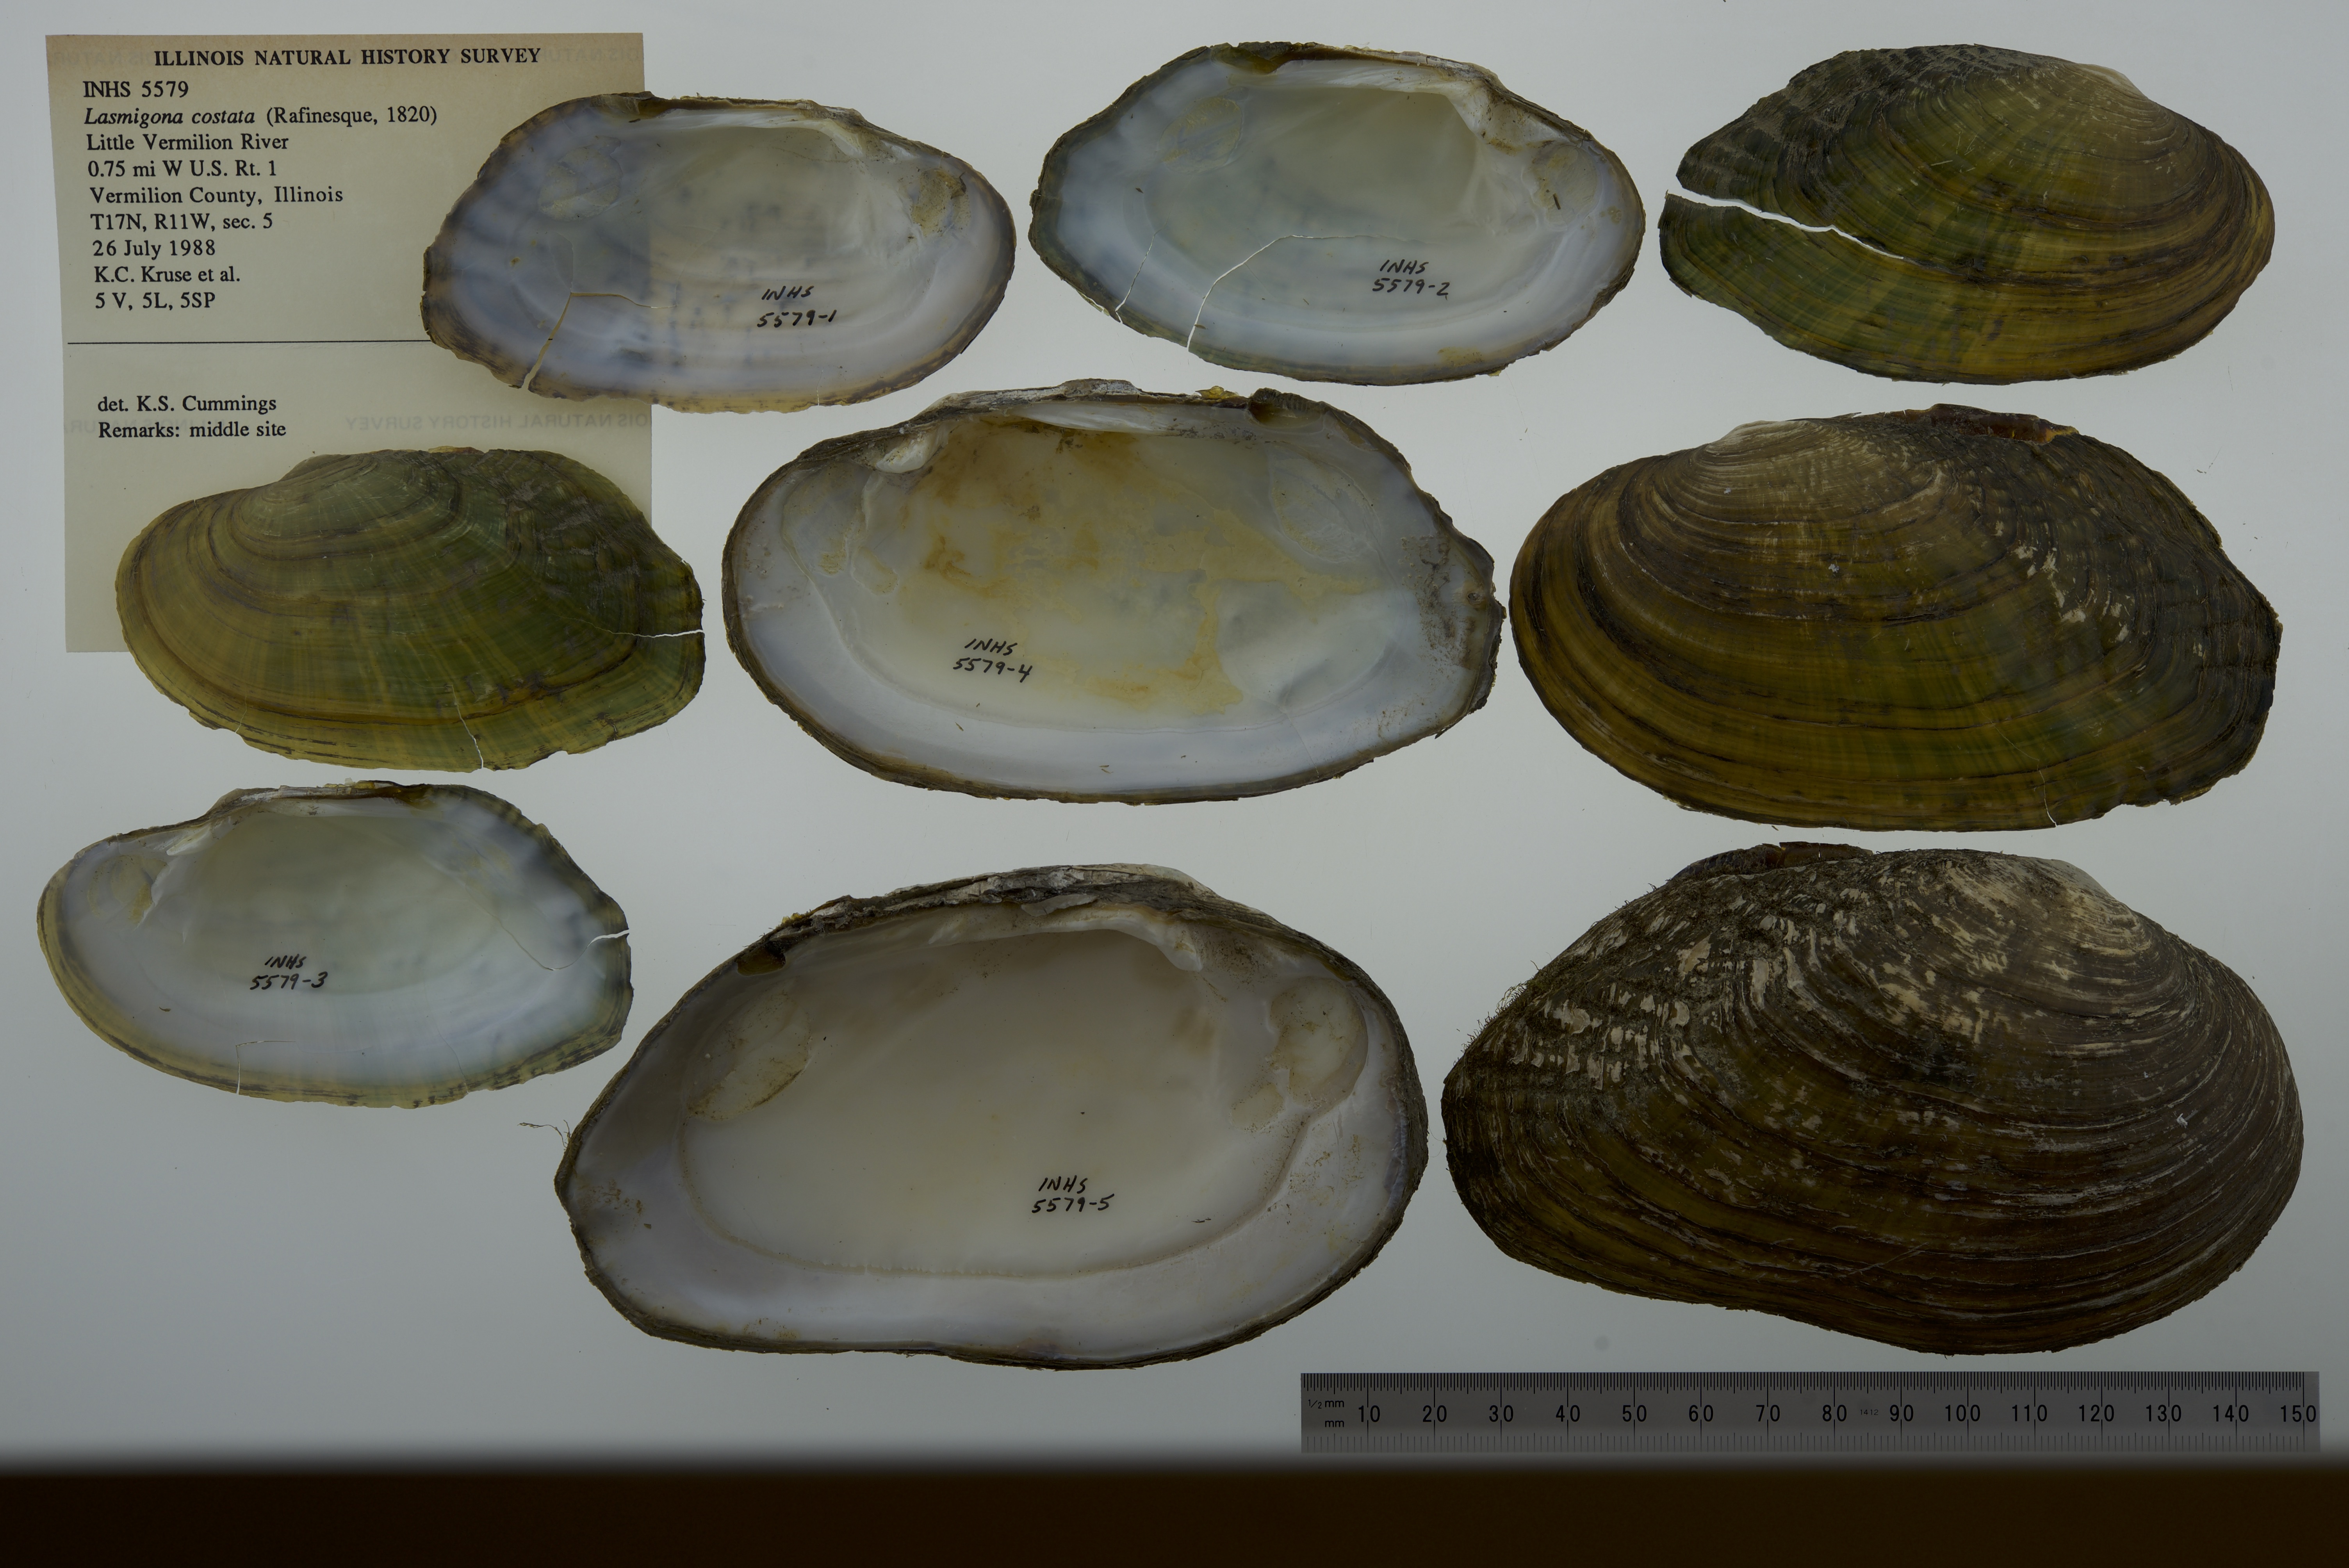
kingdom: Animalia
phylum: Mollusca
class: Bivalvia
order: Unionida
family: Unionidae
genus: Lasmigona
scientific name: Lasmigona costata
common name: Flutedshell
